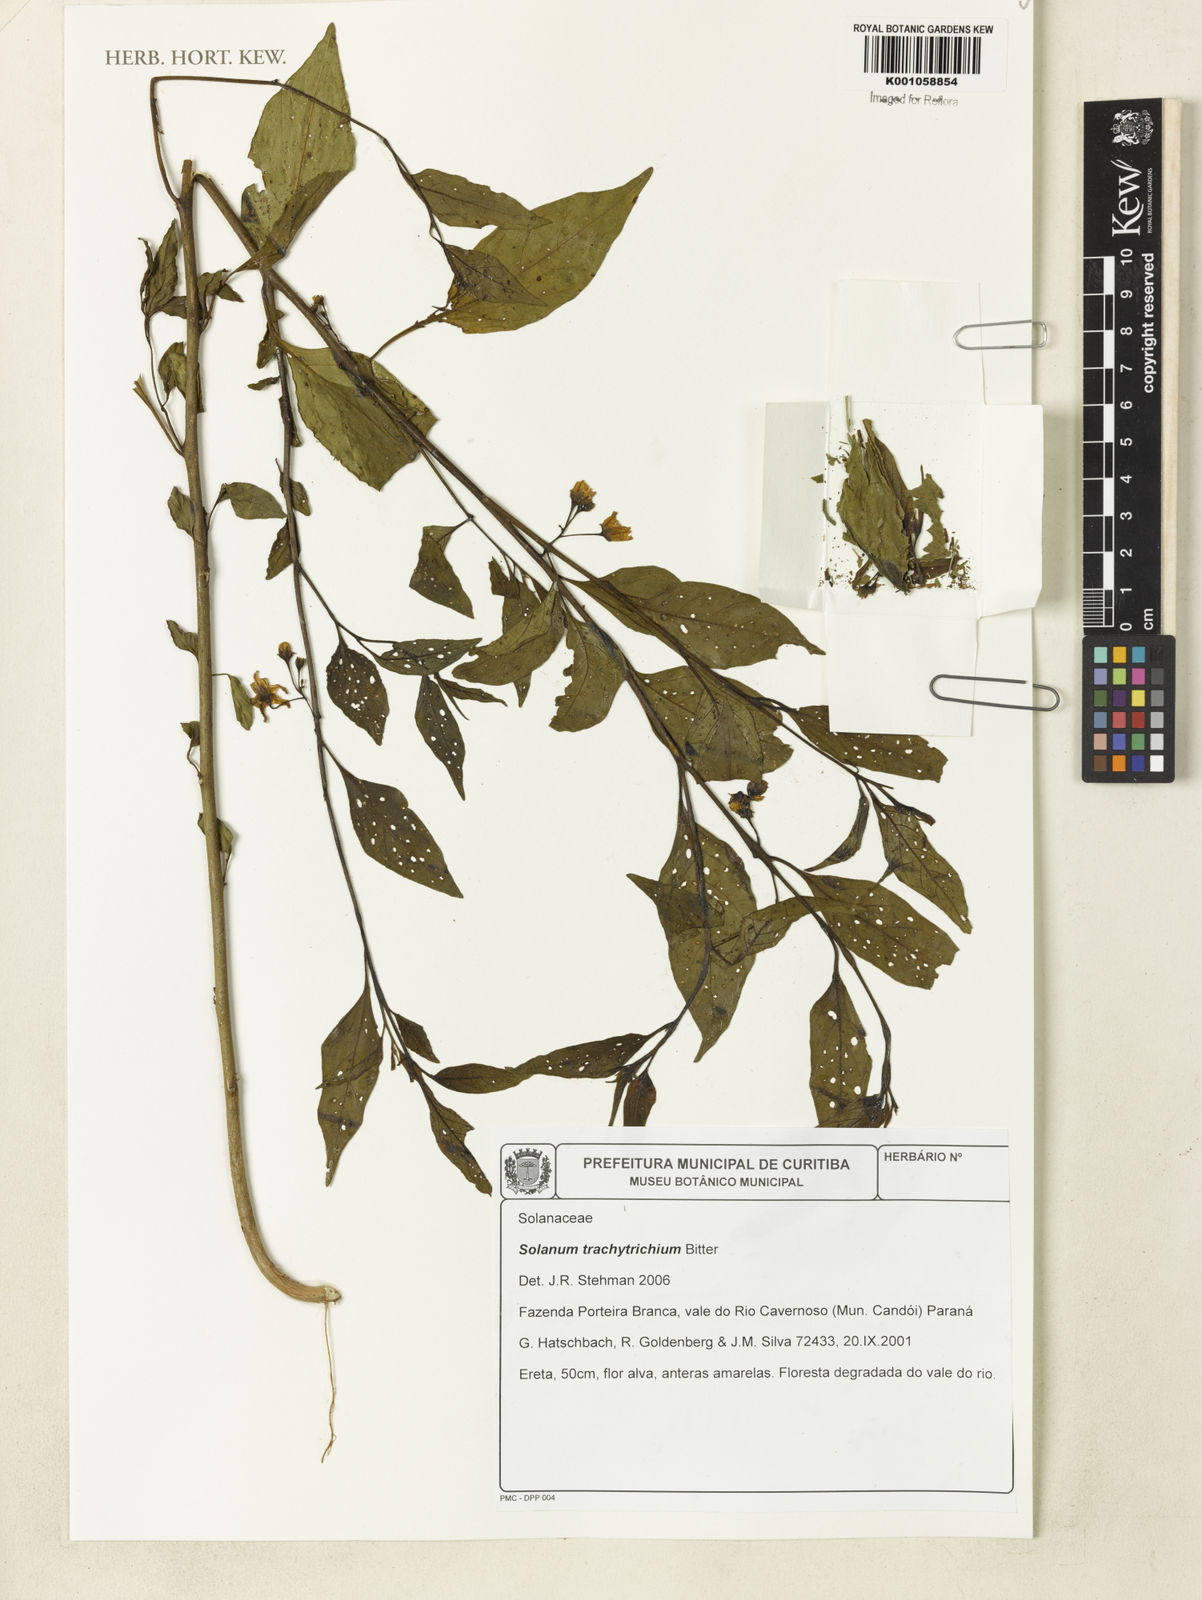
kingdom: Plantae
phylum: Tracheophyta
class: Magnoliopsida
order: Solanales
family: Solanaceae
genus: Solanum
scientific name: Solanum trachytrichium
